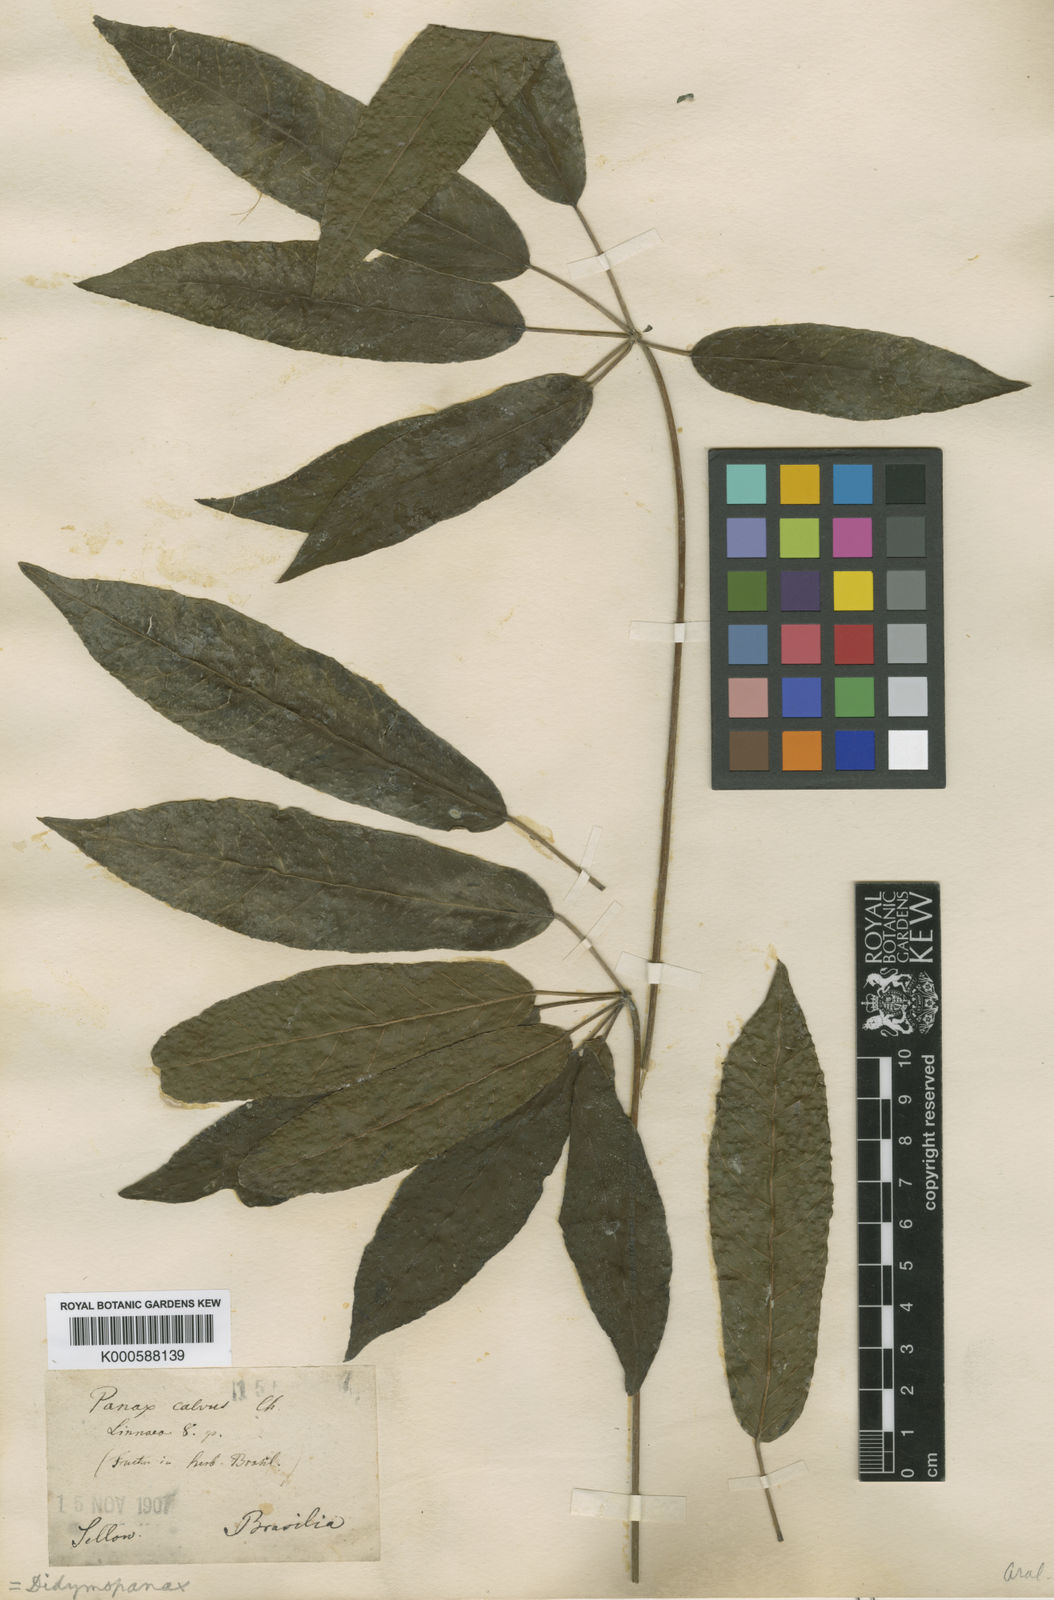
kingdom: Plantae
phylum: Tracheophyta
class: Magnoliopsida
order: Apiales
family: Araliaceae
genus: Didymopanax
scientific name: Didymopanax calvus
